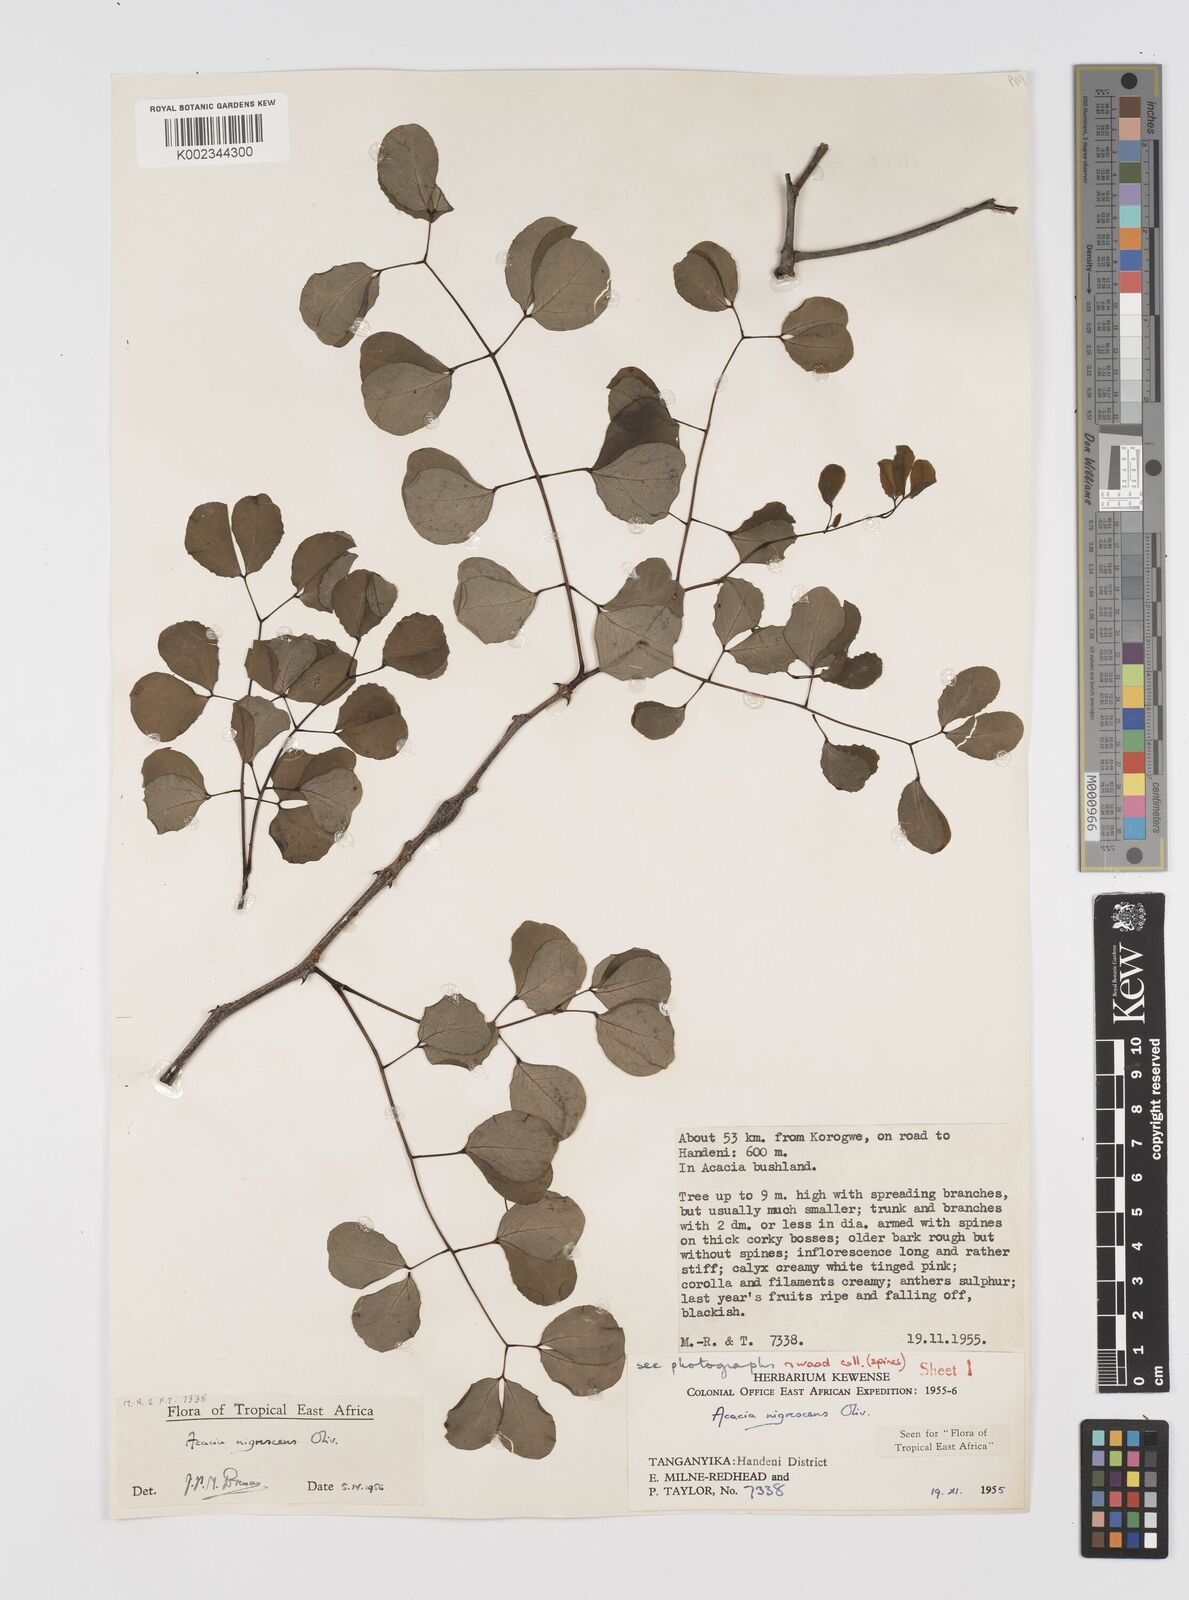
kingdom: Plantae
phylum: Tracheophyta
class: Magnoliopsida
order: Fabales
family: Fabaceae
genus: Senegalia
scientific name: Senegalia nigrescens
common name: Knobthorn
